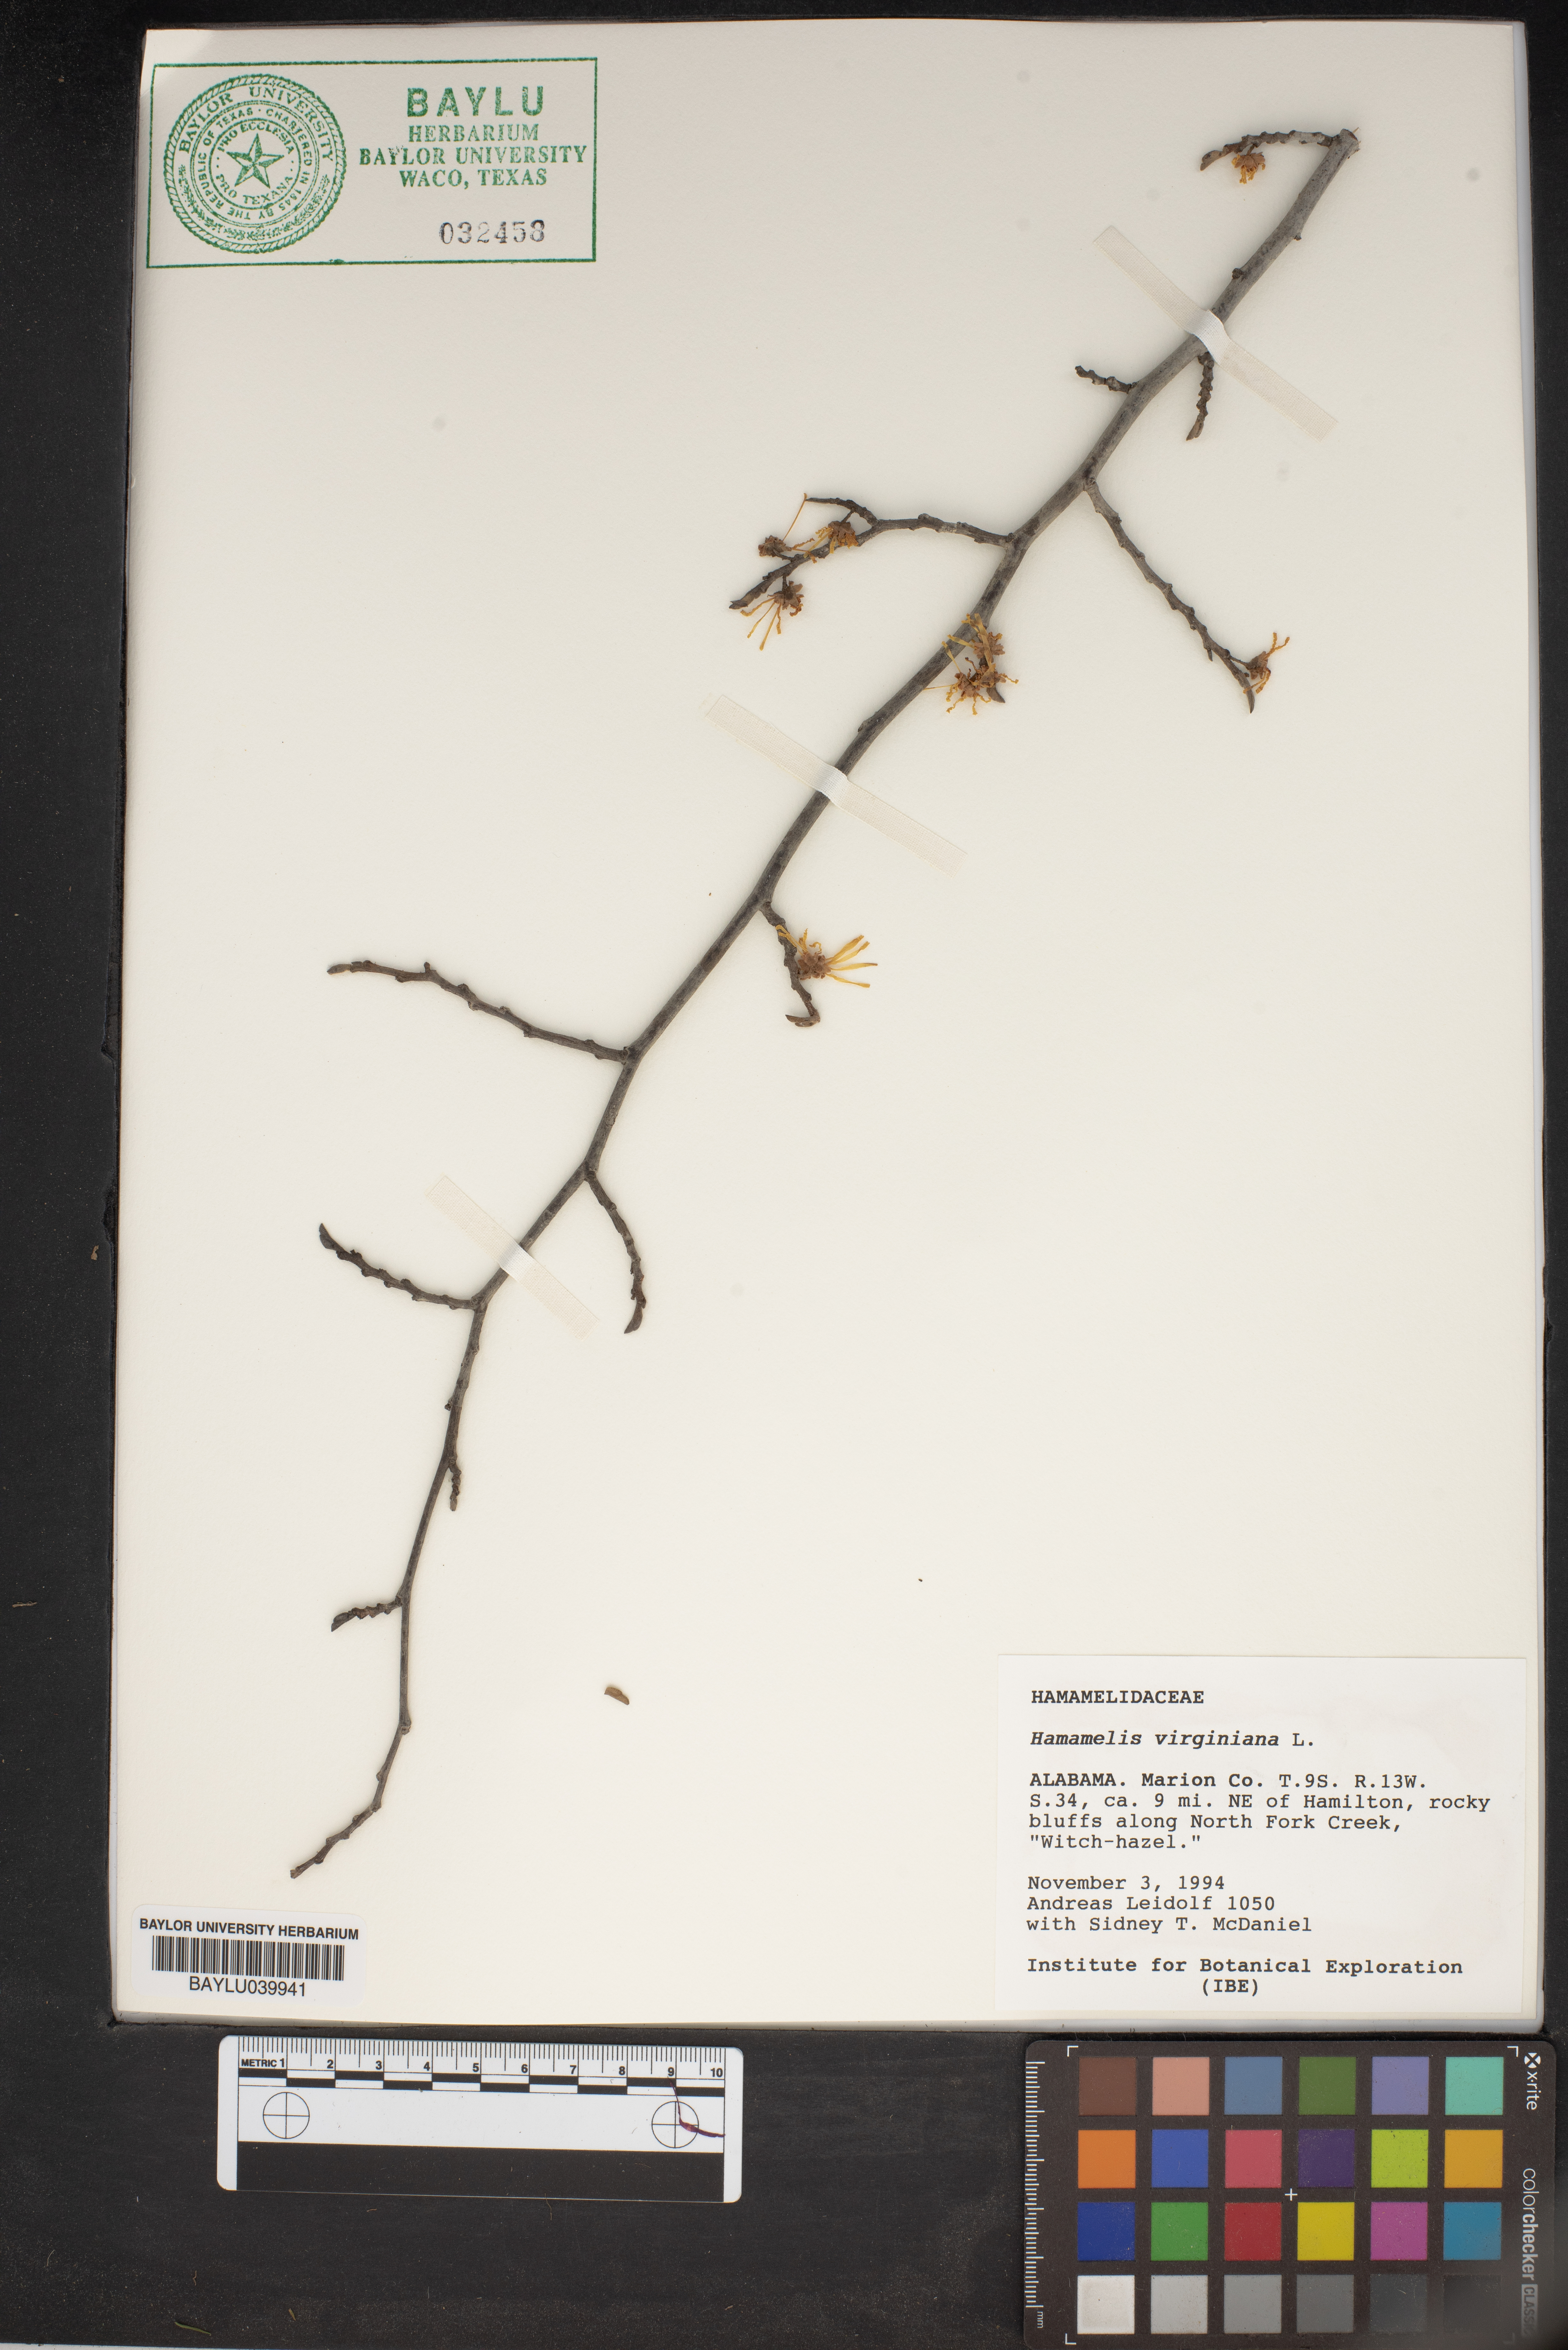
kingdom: Plantae
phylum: Tracheophyta
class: Magnoliopsida
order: Saxifragales
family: Hamamelidaceae
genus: Hamamelis
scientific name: Hamamelis virginiana
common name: Witch-hazel
